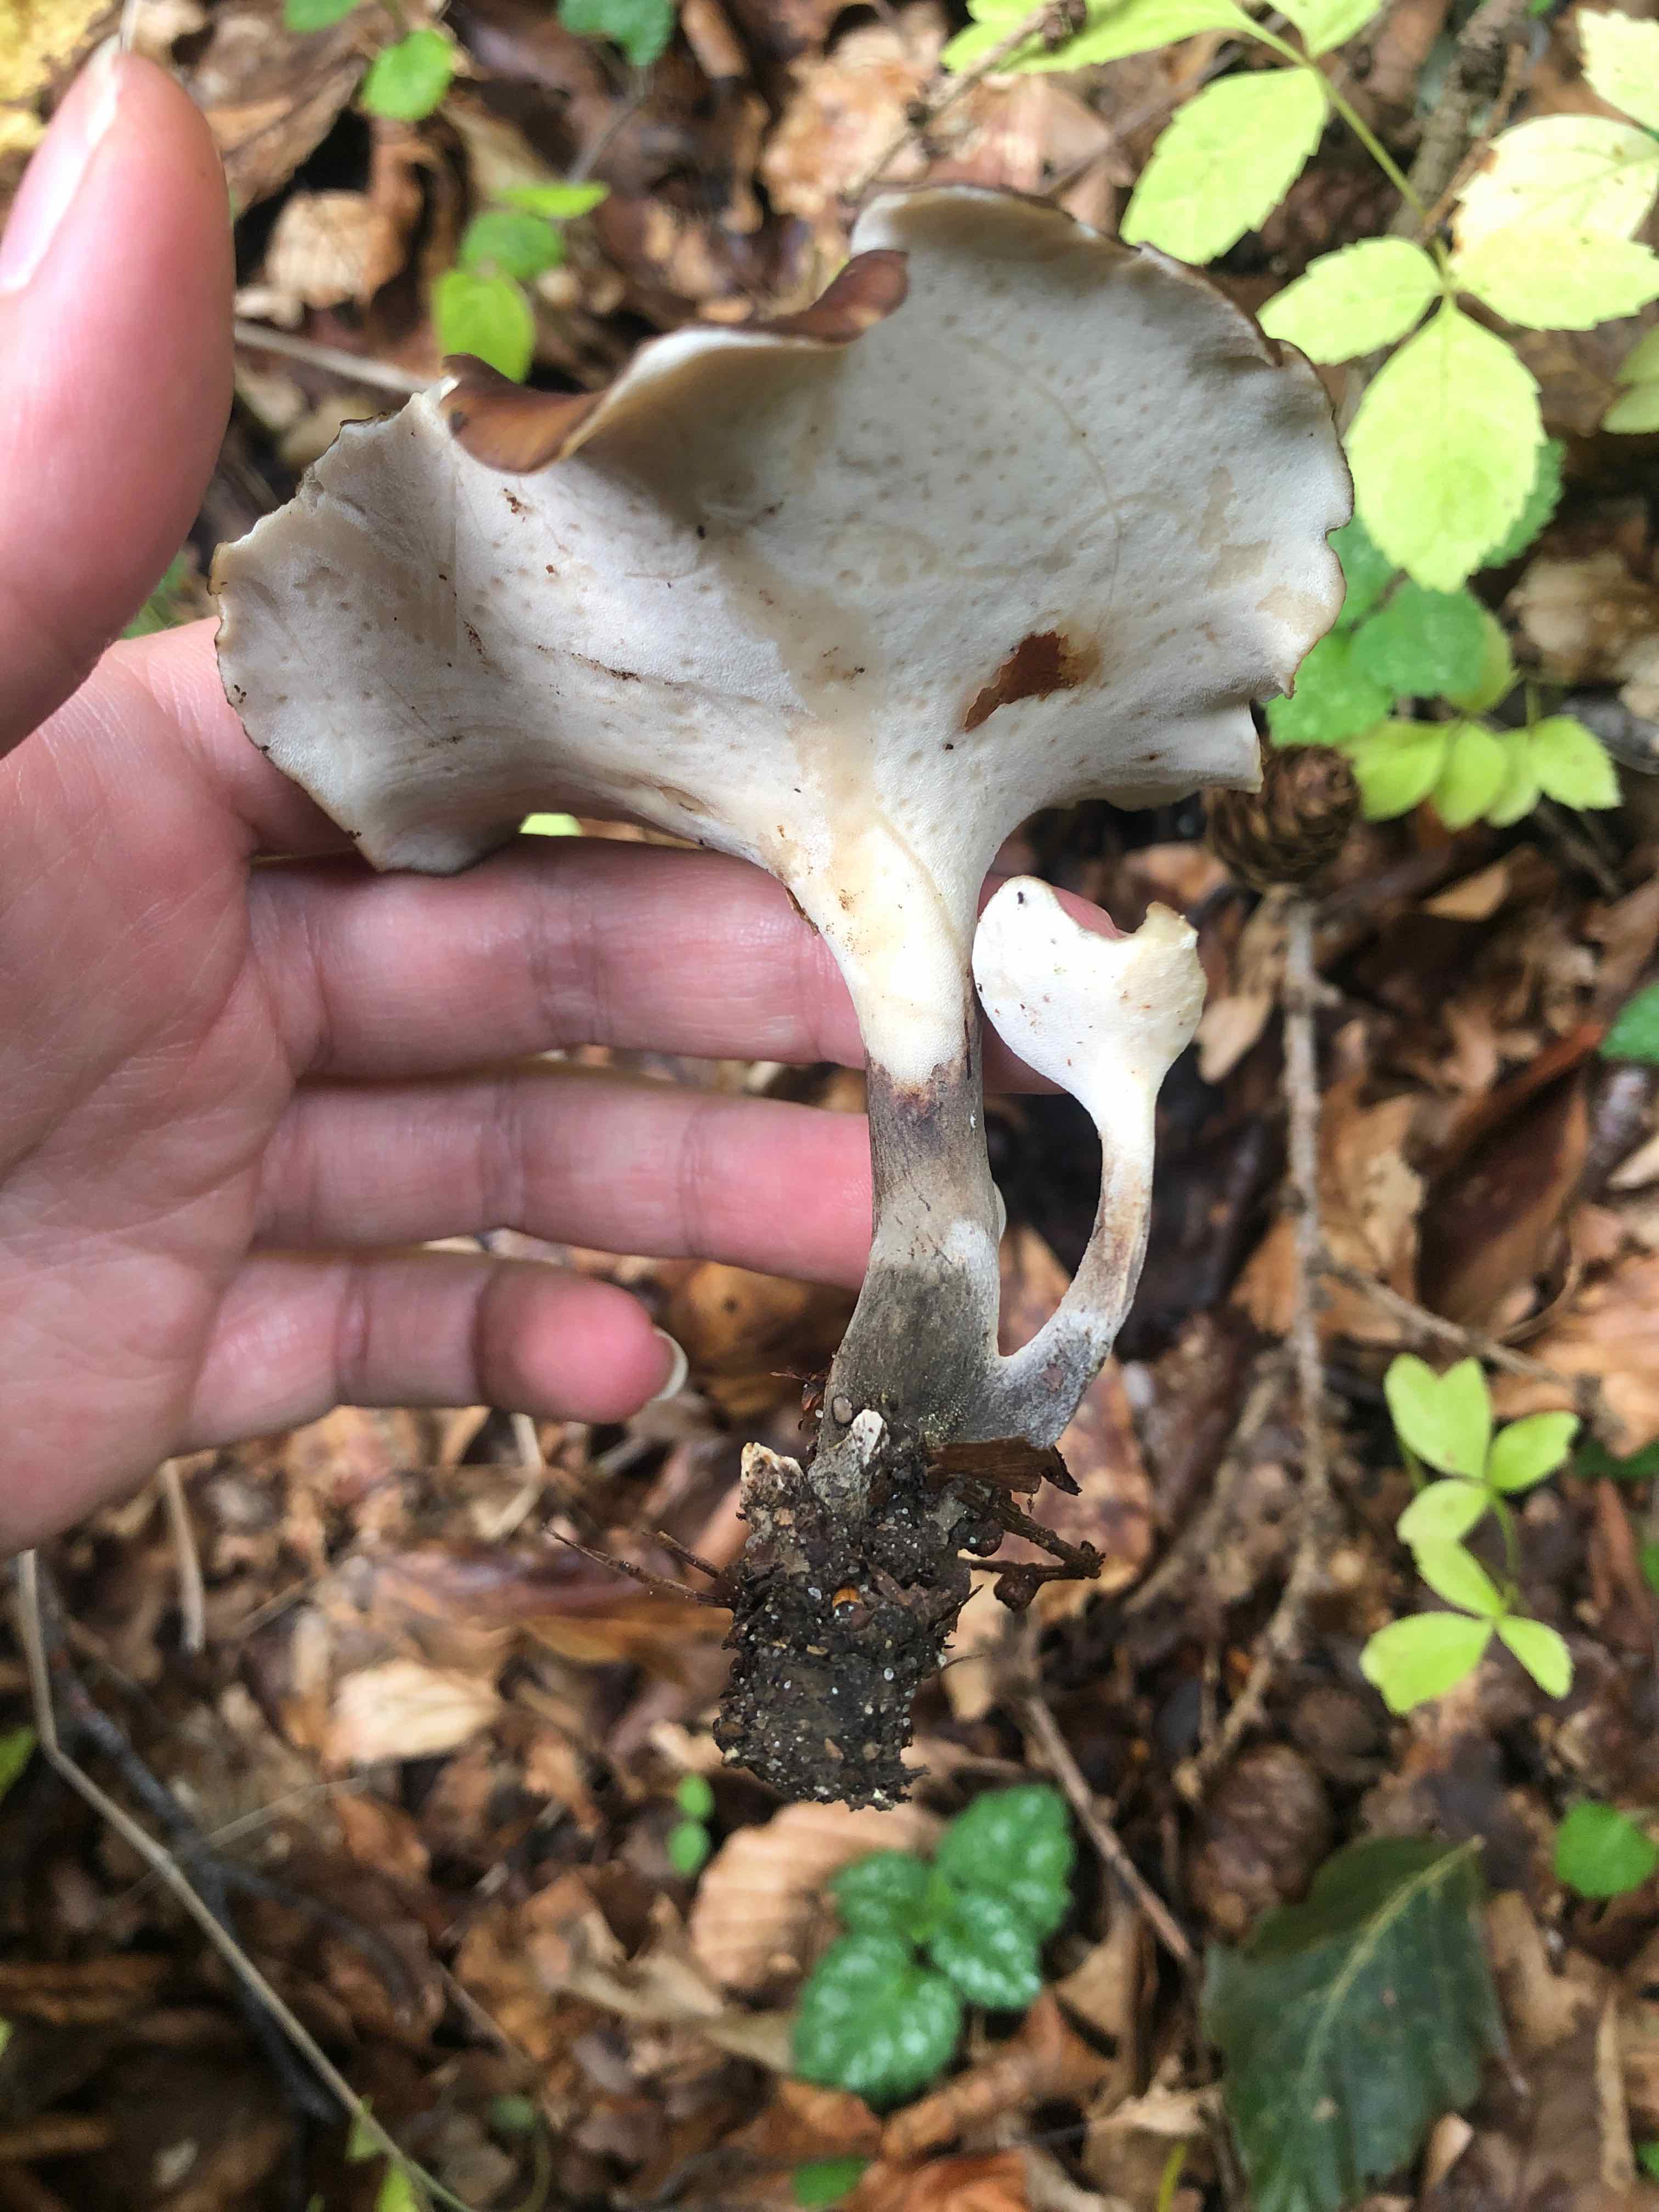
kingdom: Fungi
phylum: Basidiomycota
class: Agaricomycetes
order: Polyporales
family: Polyporaceae
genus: Picipes
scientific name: Picipes badius
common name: kastaniebrun stilkporesvamp
